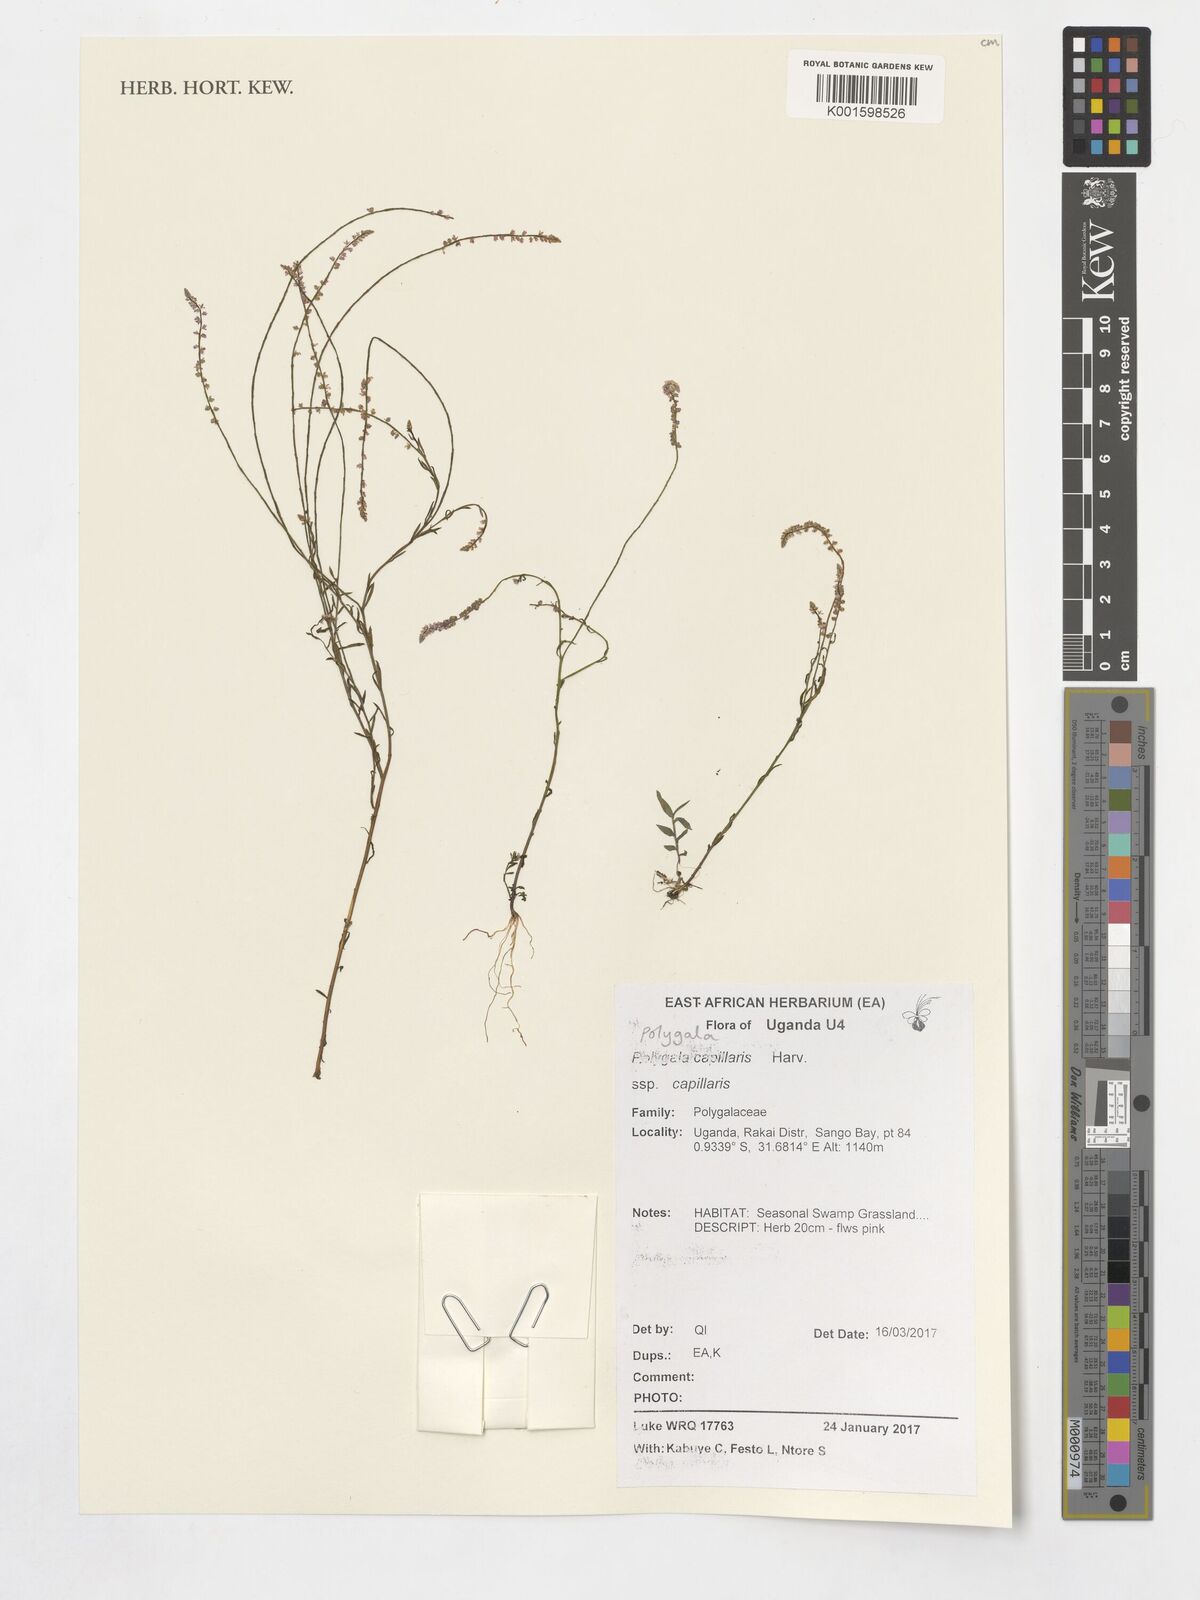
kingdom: Plantae
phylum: Tracheophyta
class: Magnoliopsida
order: Fabales
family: Polygalaceae
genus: Polygala
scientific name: Polygala capillaris
